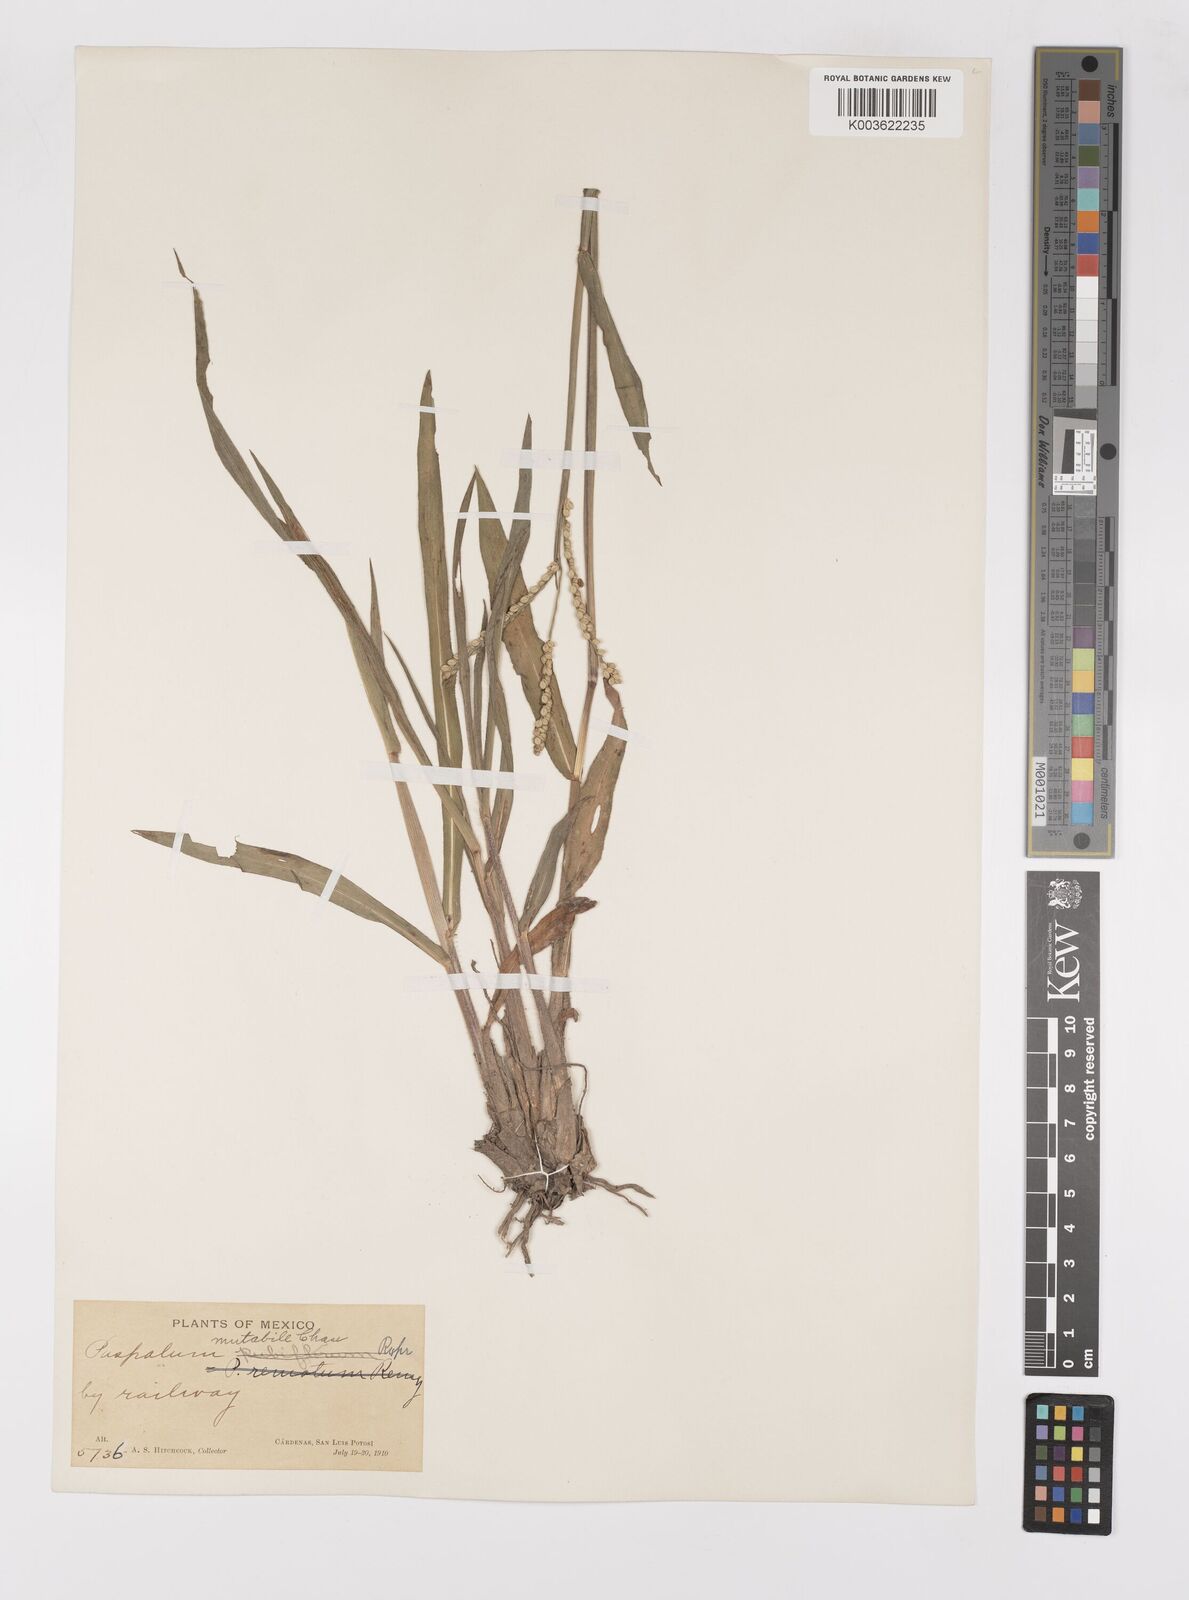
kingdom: Plantae
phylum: Tracheophyta
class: Liliopsida
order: Poales
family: Poaceae
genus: Paspalum
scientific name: Paspalum
